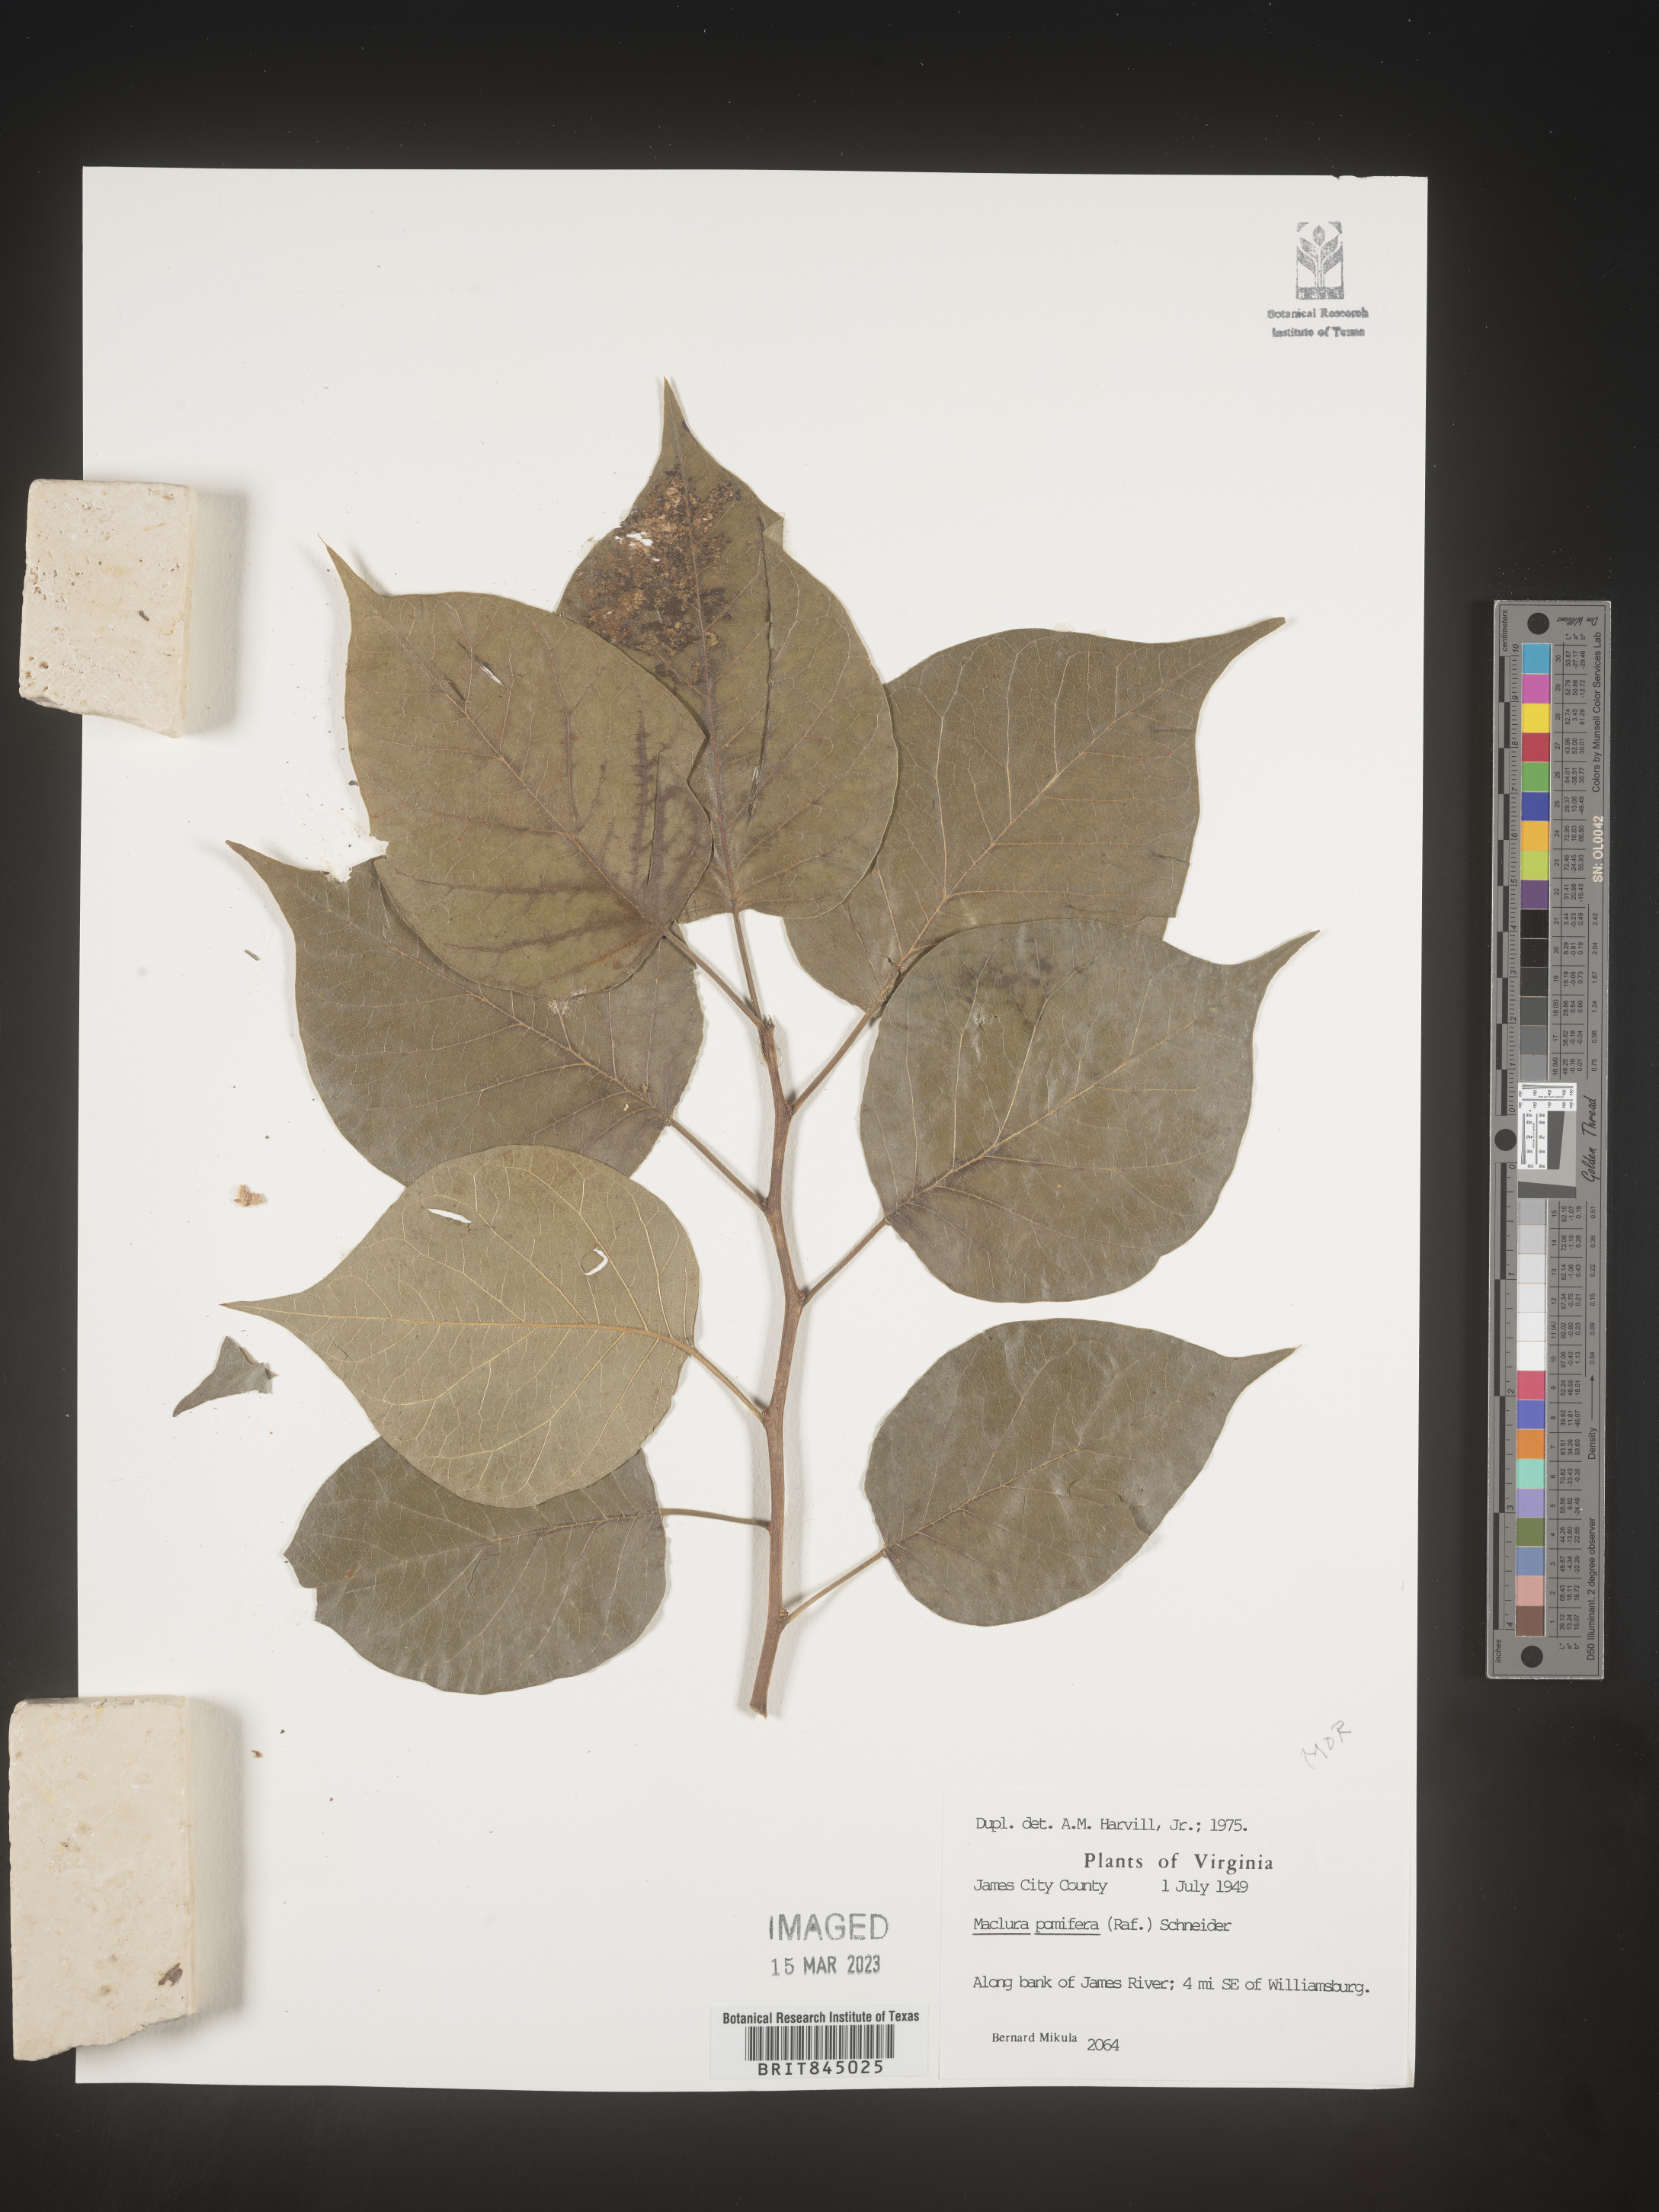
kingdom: Plantae
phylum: Tracheophyta
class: Magnoliopsida
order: Rosales
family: Moraceae
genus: Maclura
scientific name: Maclura pomifera
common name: Osage-orange
